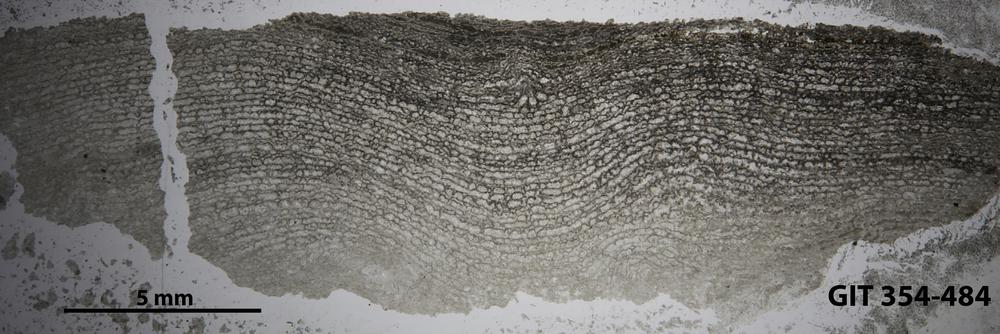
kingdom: Animalia
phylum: Porifera
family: Clathrodictyidae
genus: Clathrodictyon
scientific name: Clathrodictyon Stromatopora variolaris
